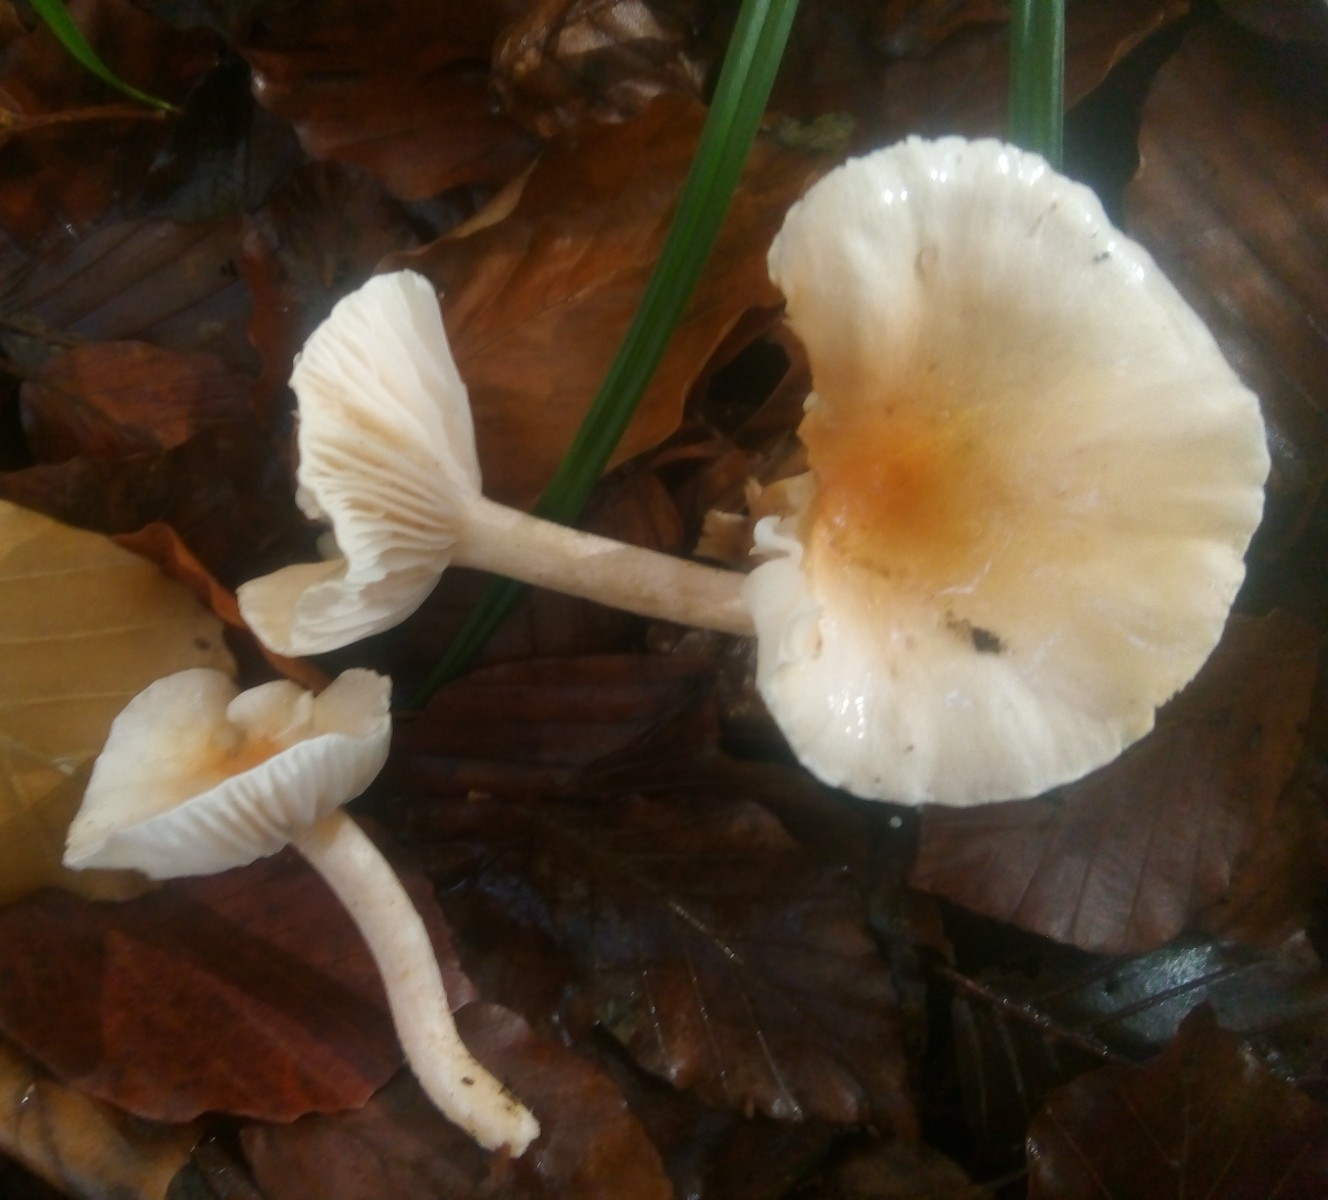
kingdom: Fungi
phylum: Basidiomycota
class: Agaricomycetes
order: Agaricales
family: Hygrophoraceae
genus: Hygrophorus
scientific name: Hygrophorus unicolor
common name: orangeøjet sneglehat
